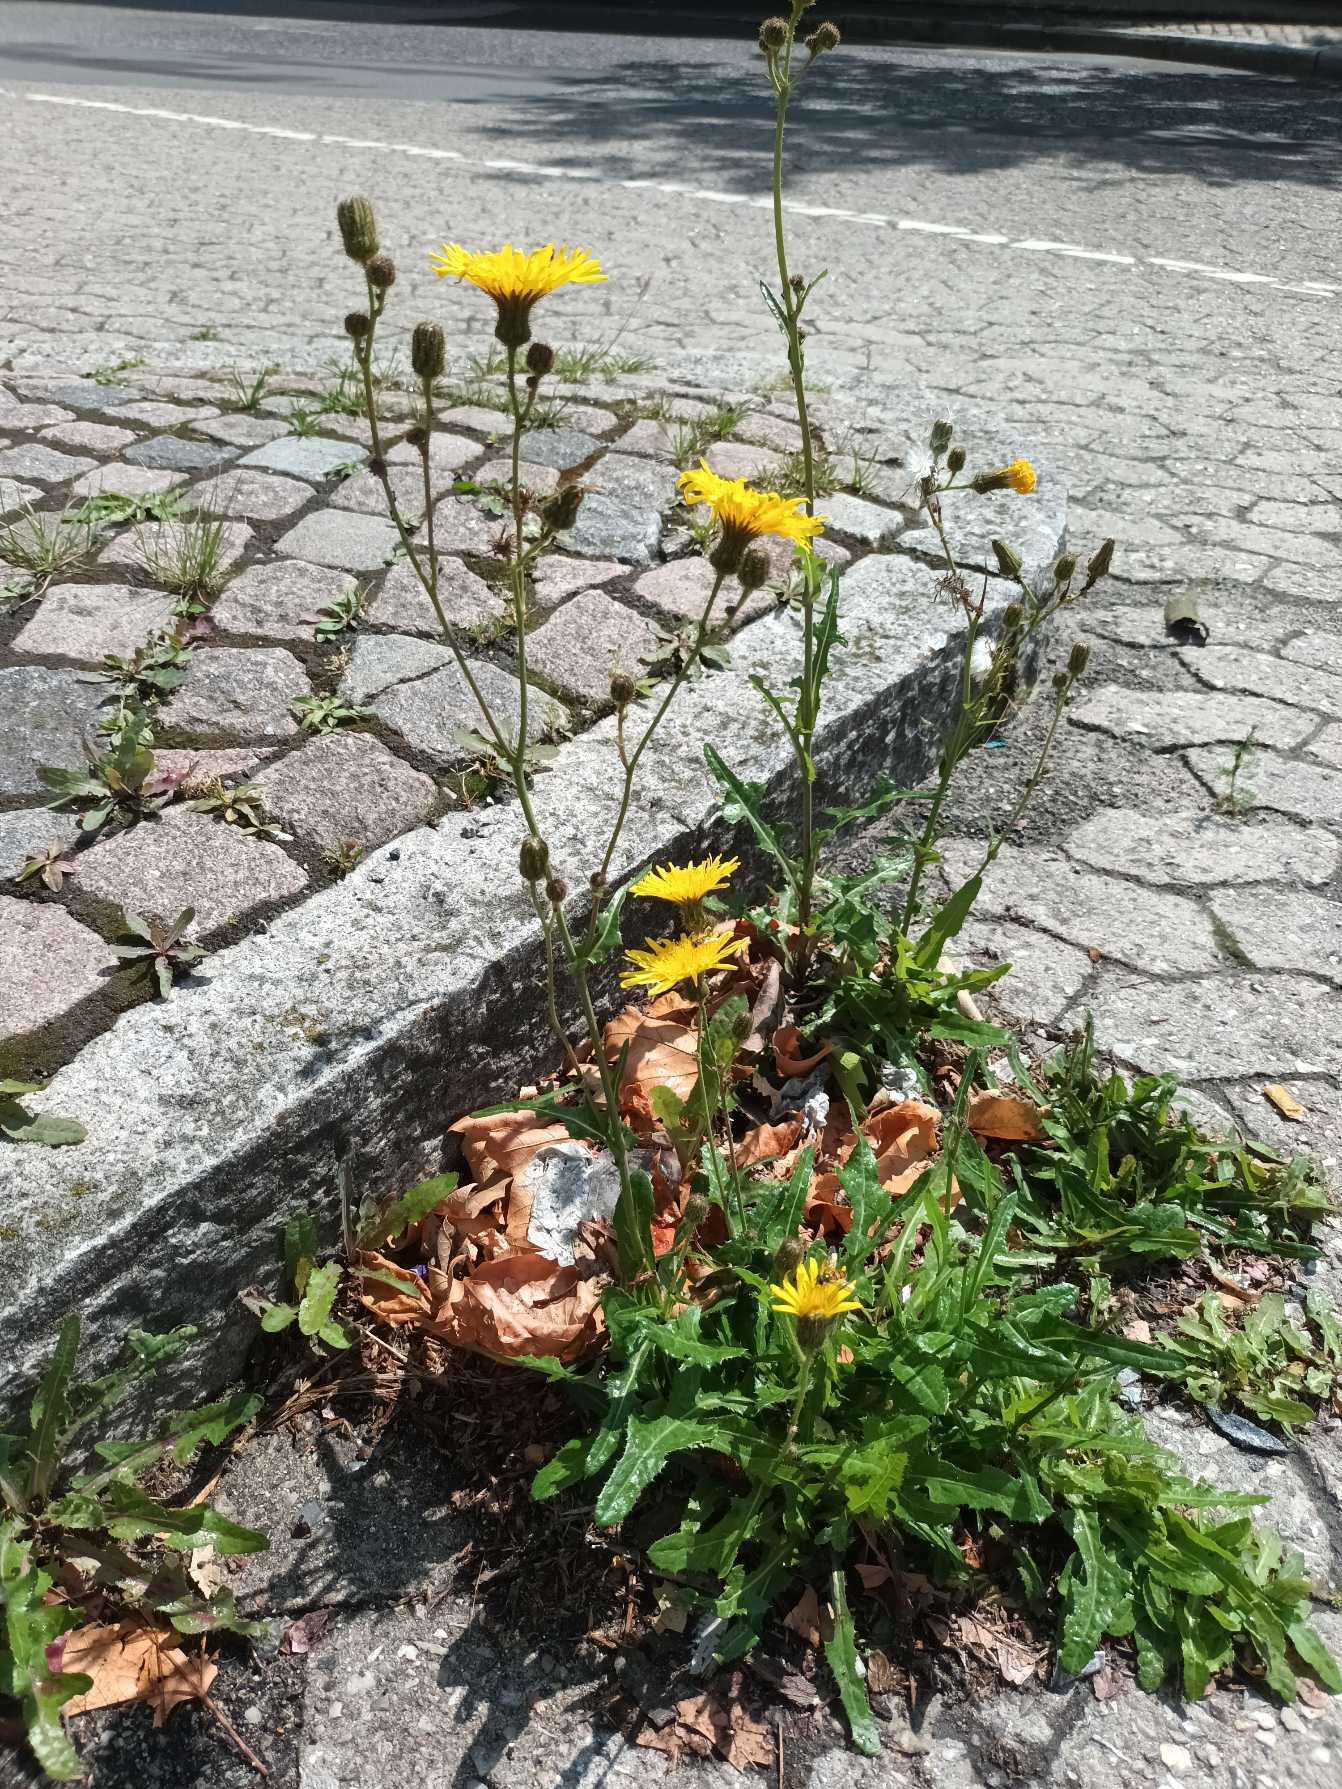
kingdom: Plantae
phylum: Tracheophyta
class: Magnoliopsida
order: Asterales
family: Asteraceae
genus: Sonchus
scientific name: Sonchus arvensis
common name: Ager-svinemælk
